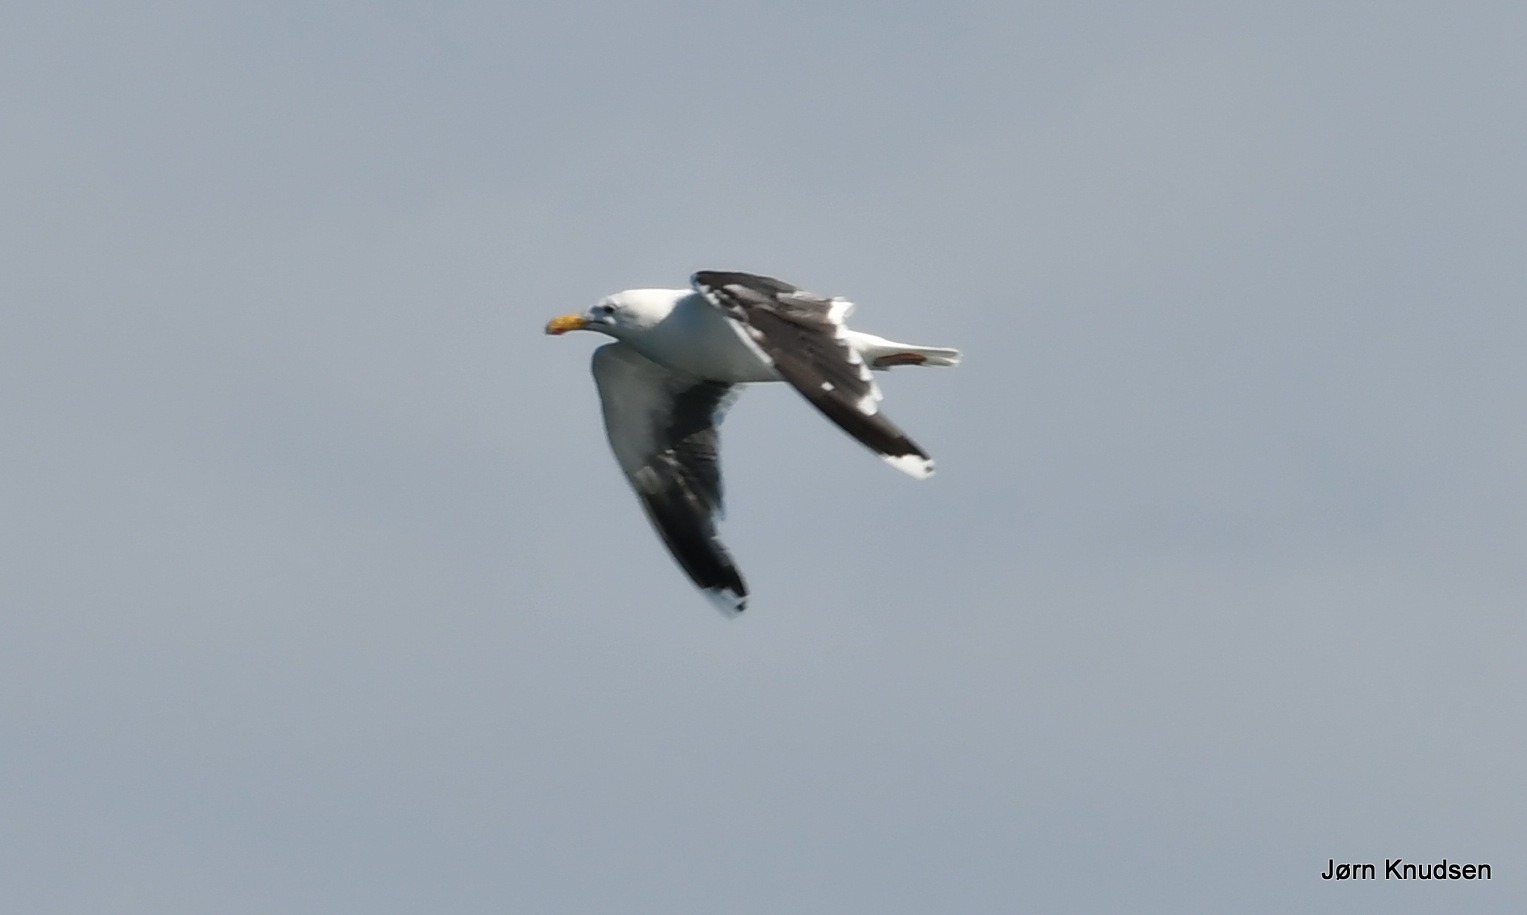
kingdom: Animalia
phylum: Chordata
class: Aves
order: Charadriiformes
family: Laridae
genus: Larus
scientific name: Larus marinus
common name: Svartbag
